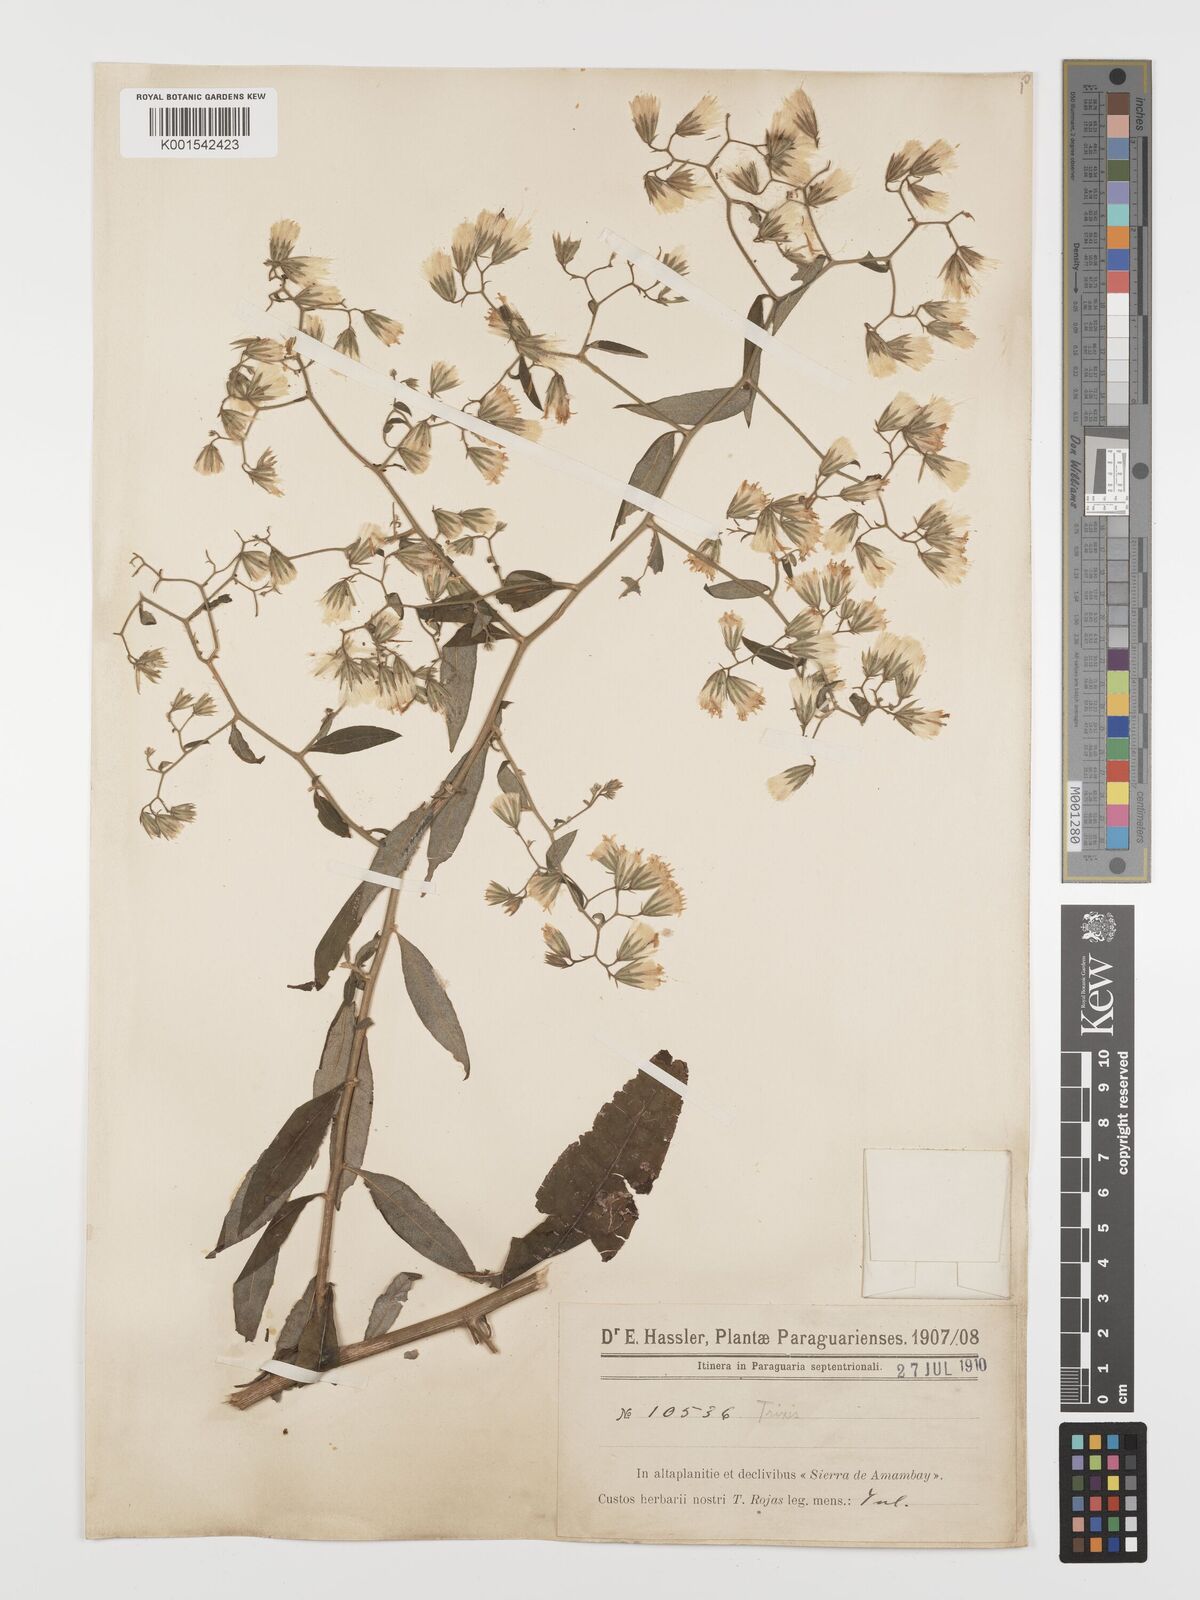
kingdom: Plantae
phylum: Tracheophyta
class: Magnoliopsida
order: Asterales
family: Asteraceae
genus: Trixis
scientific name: Trixis divaricata
